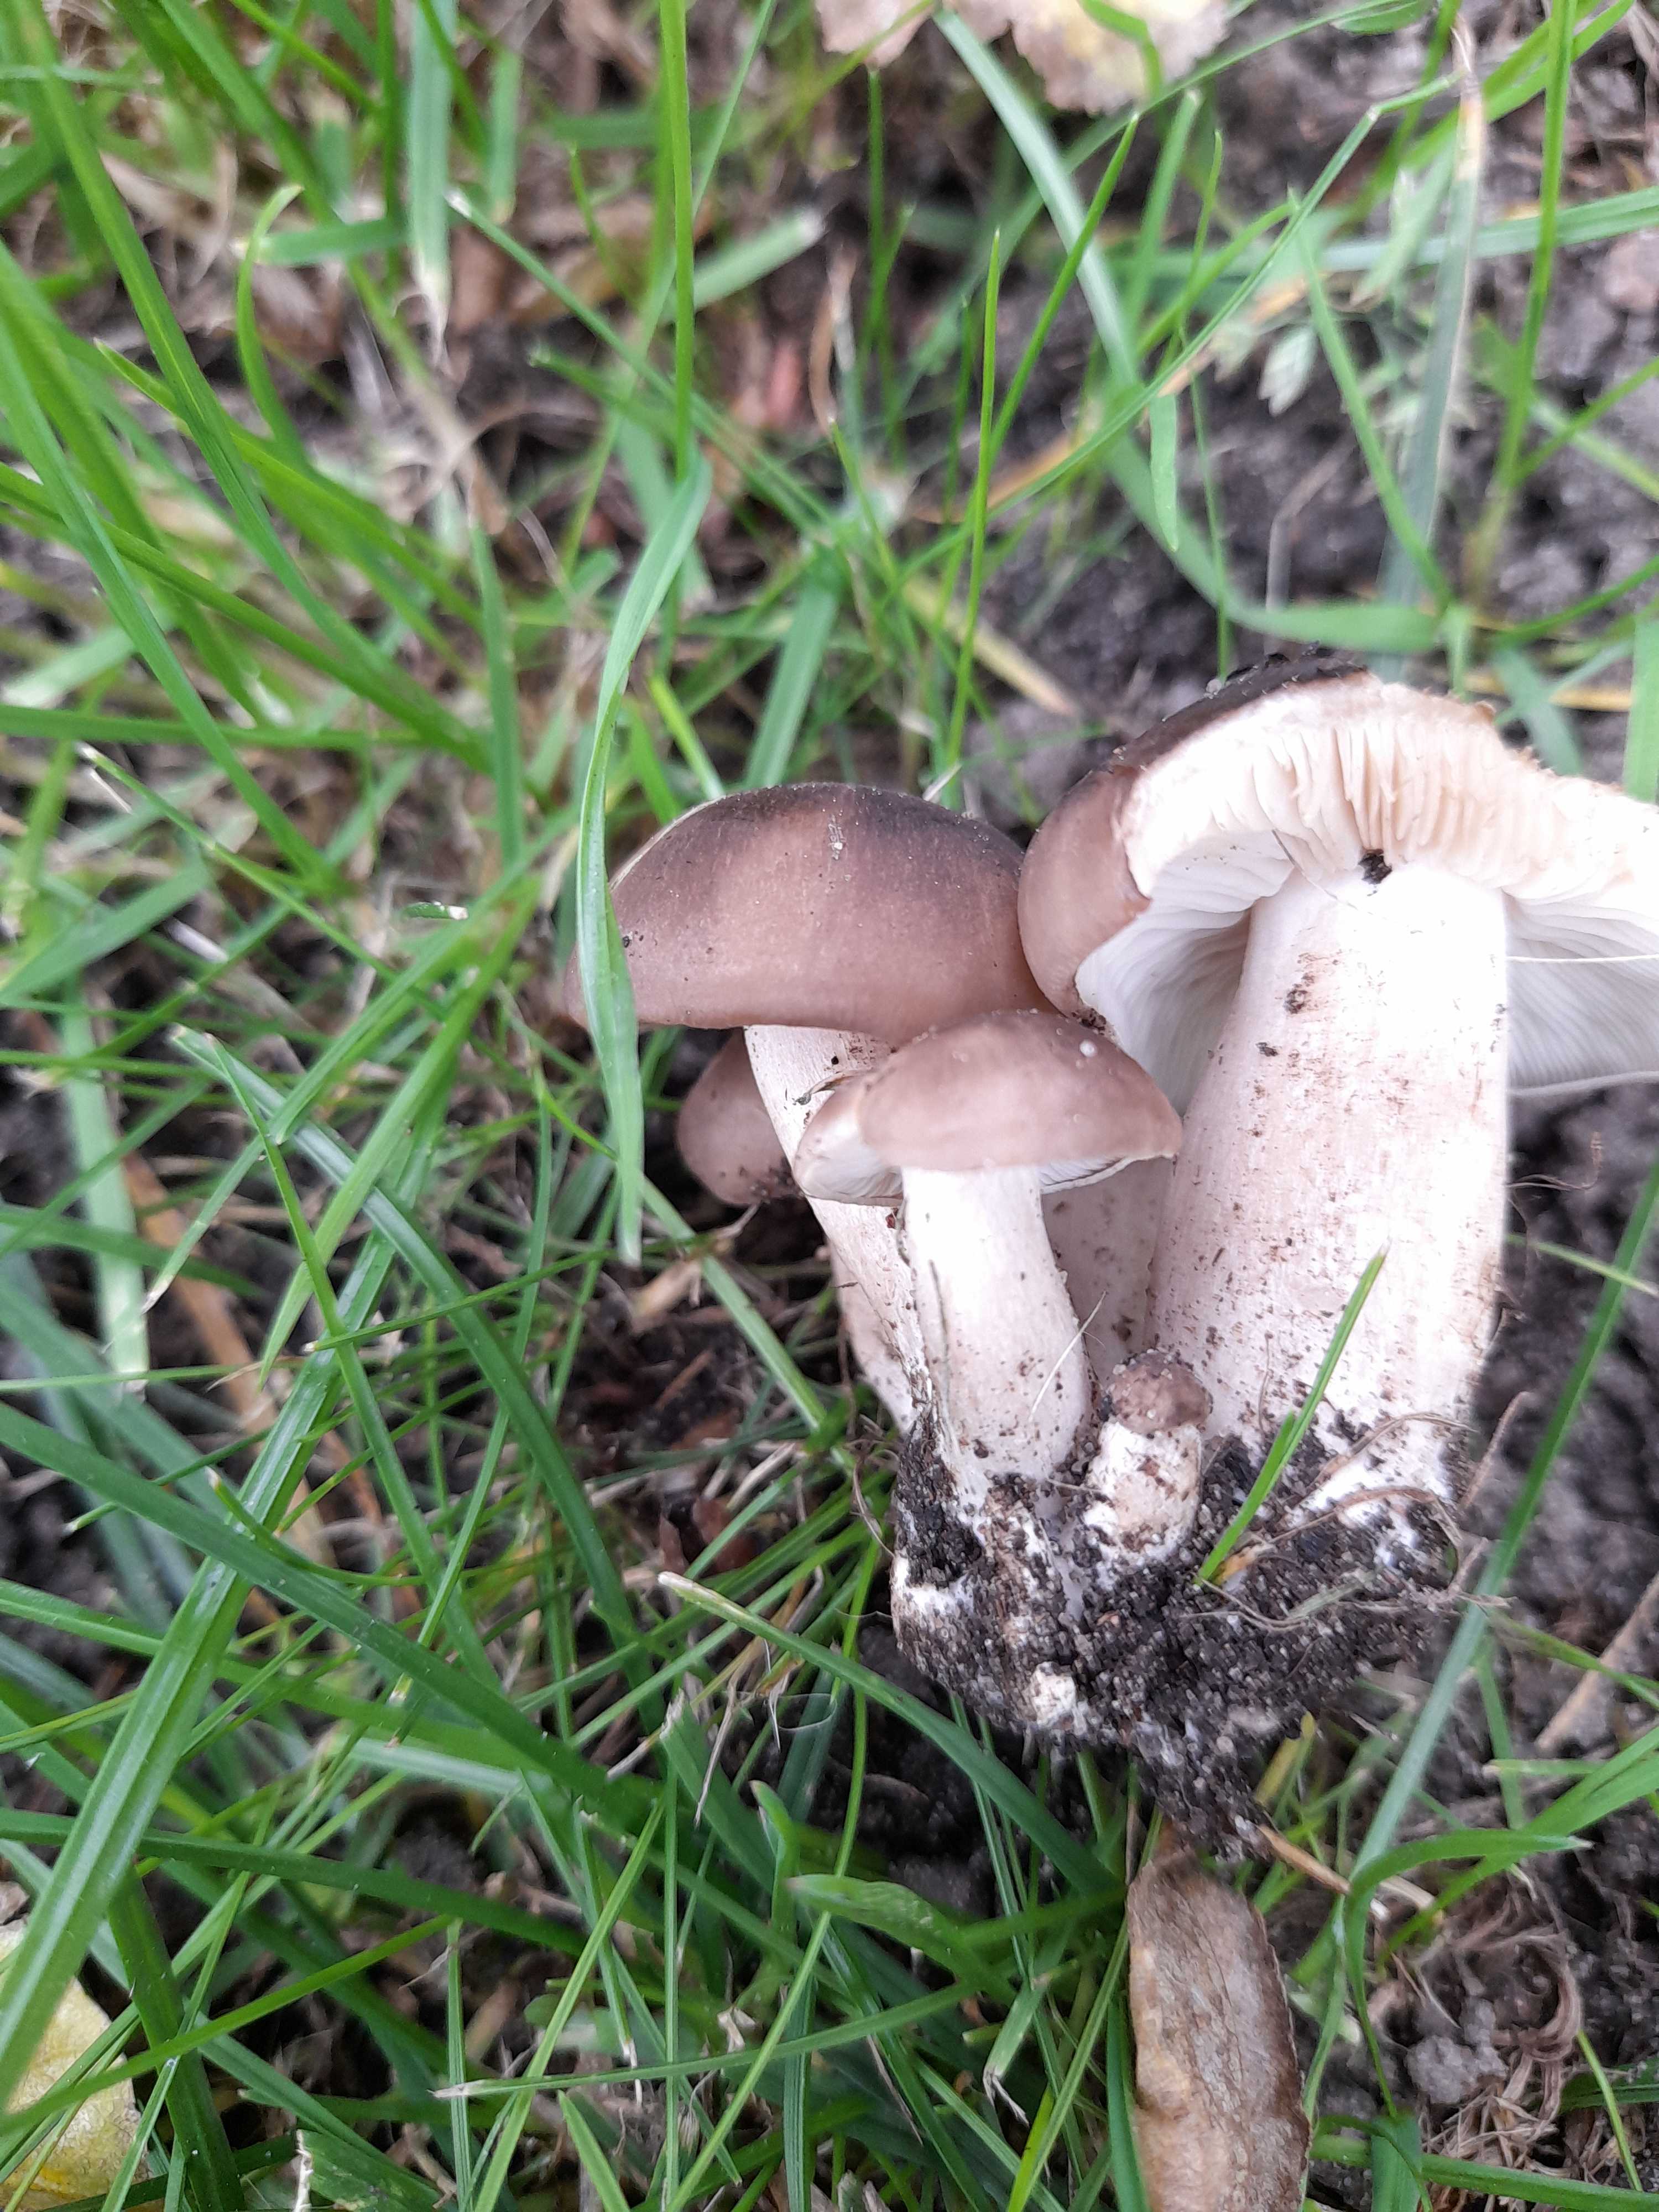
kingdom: Fungi
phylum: Basidiomycota
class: Agaricomycetes
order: Agaricales
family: Lyophyllaceae
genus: Lyophyllum
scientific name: Lyophyllum decastes
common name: røggrå gråblad
